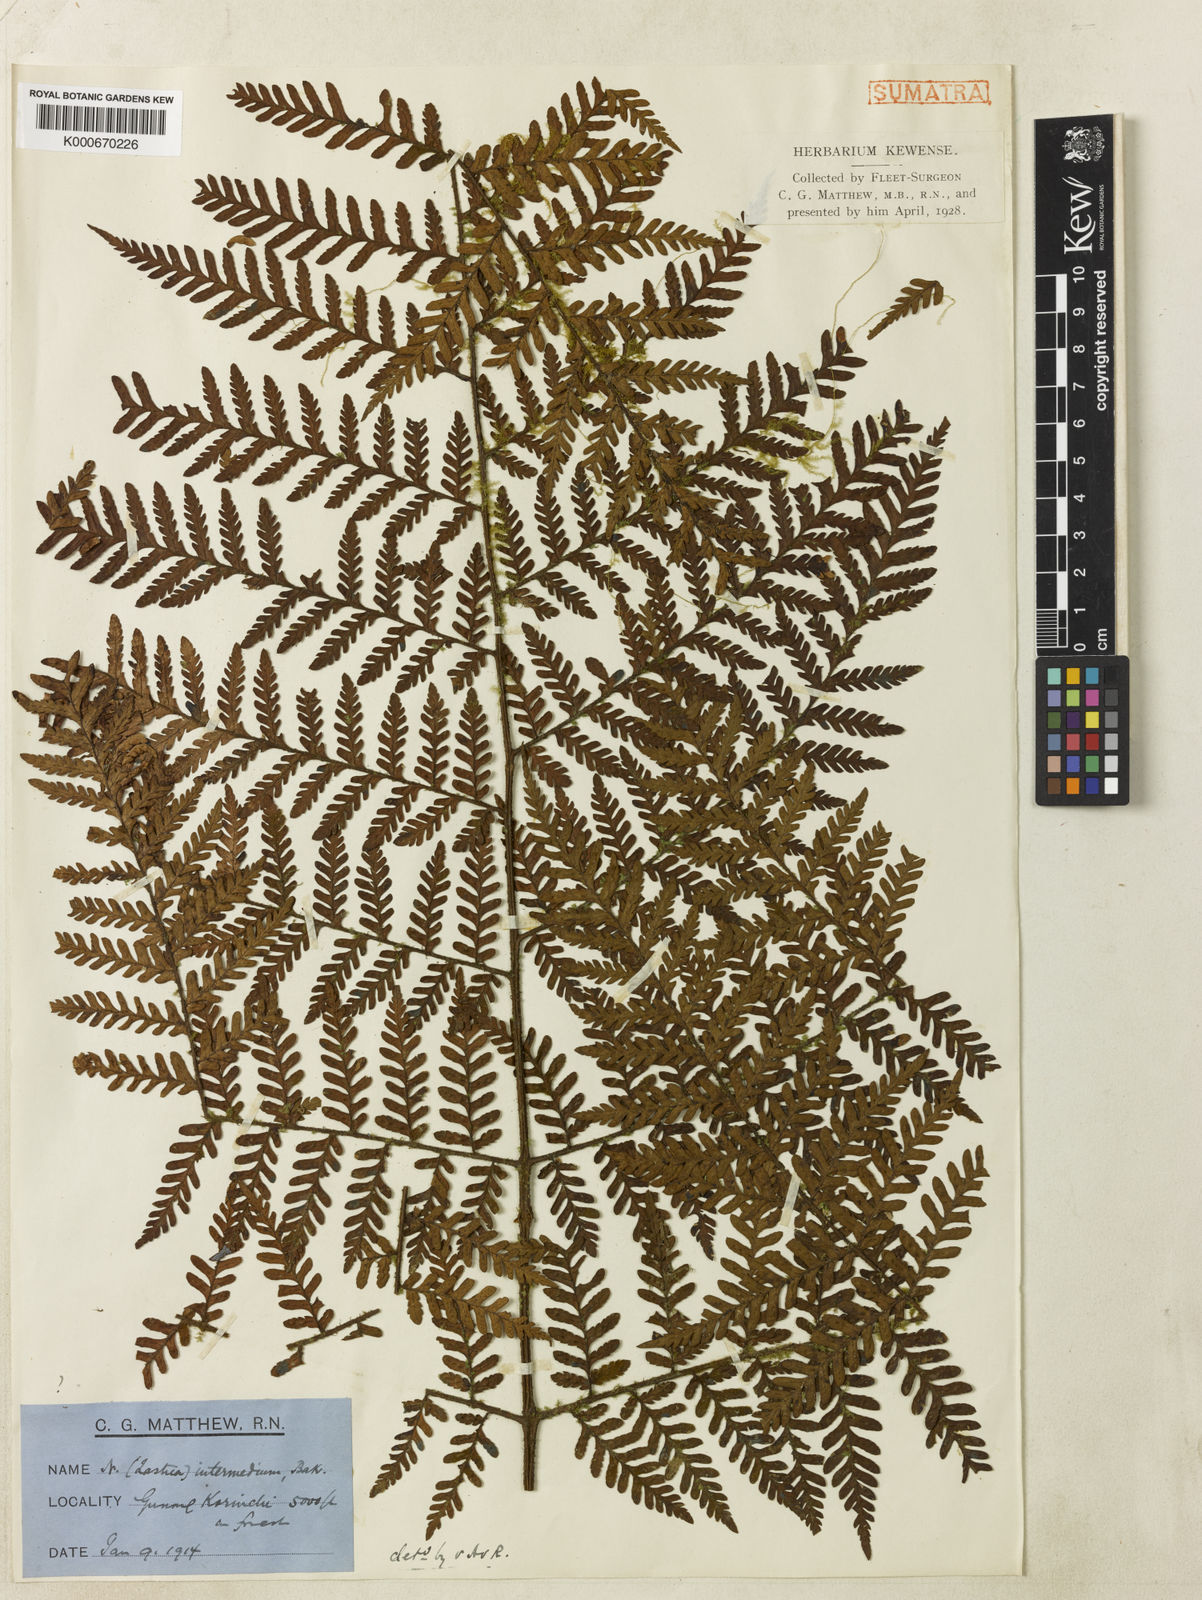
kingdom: Plantae
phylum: Tracheophyta
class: Polypodiopsida
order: Polypodiales
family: Dryopteridaceae
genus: Ctenitis
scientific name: Ctenitis elata
